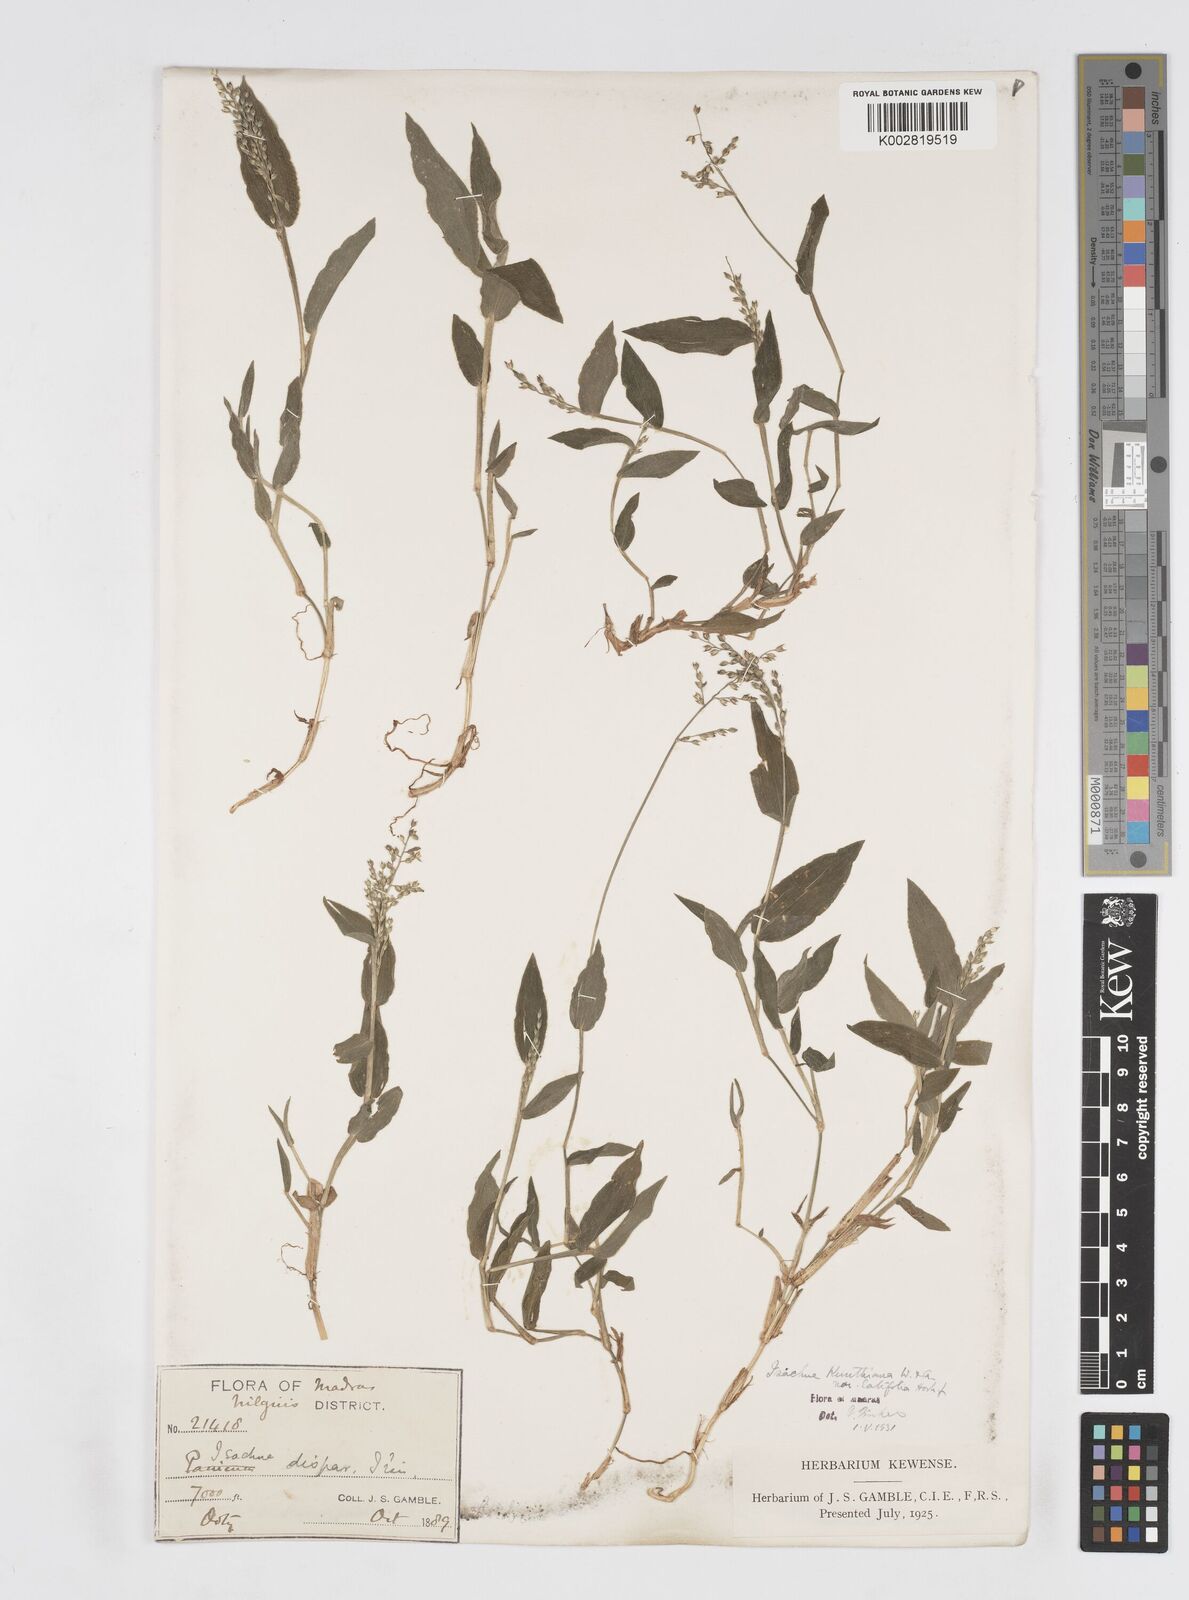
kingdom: Plantae
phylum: Tracheophyta
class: Liliopsida
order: Poales
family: Poaceae
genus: Isachne
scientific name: Isachne kunthiana
